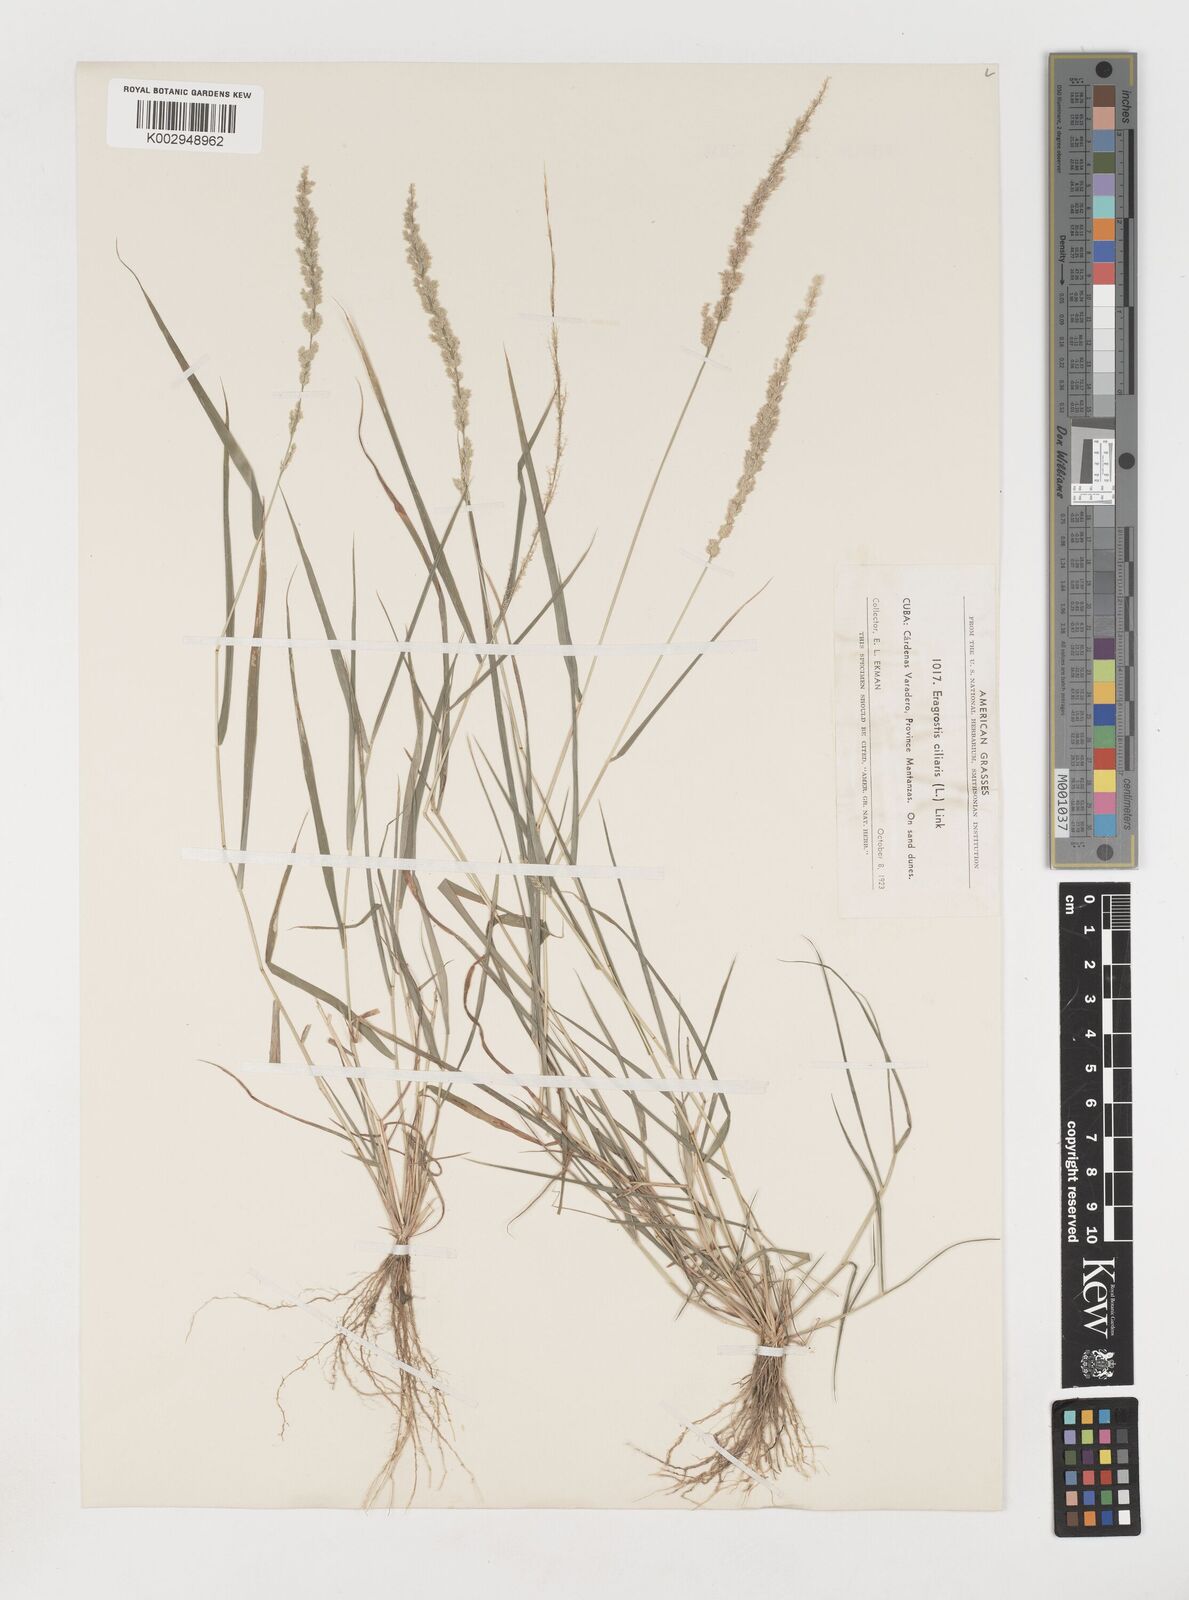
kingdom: Plantae
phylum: Tracheophyta
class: Liliopsida
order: Poales
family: Poaceae
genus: Eragrostis
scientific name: Eragrostis ciliaris
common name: Gophertail lovegrass
